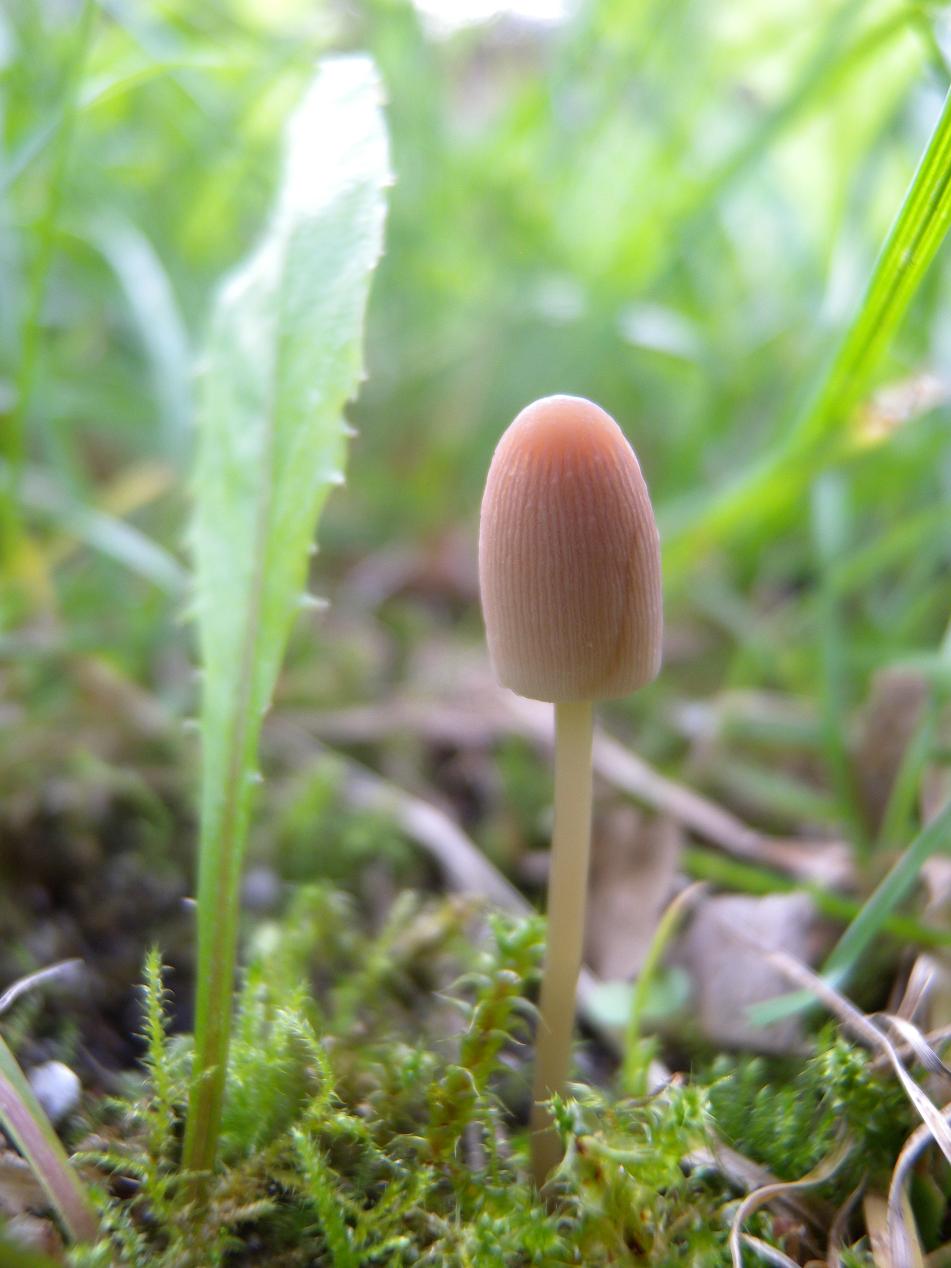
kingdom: Fungi
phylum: Basidiomycota
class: Agaricomycetes
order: Agaricales
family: Psathyrellaceae
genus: Parasola
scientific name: Parasola plicatilis
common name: plæne-hjulhat
